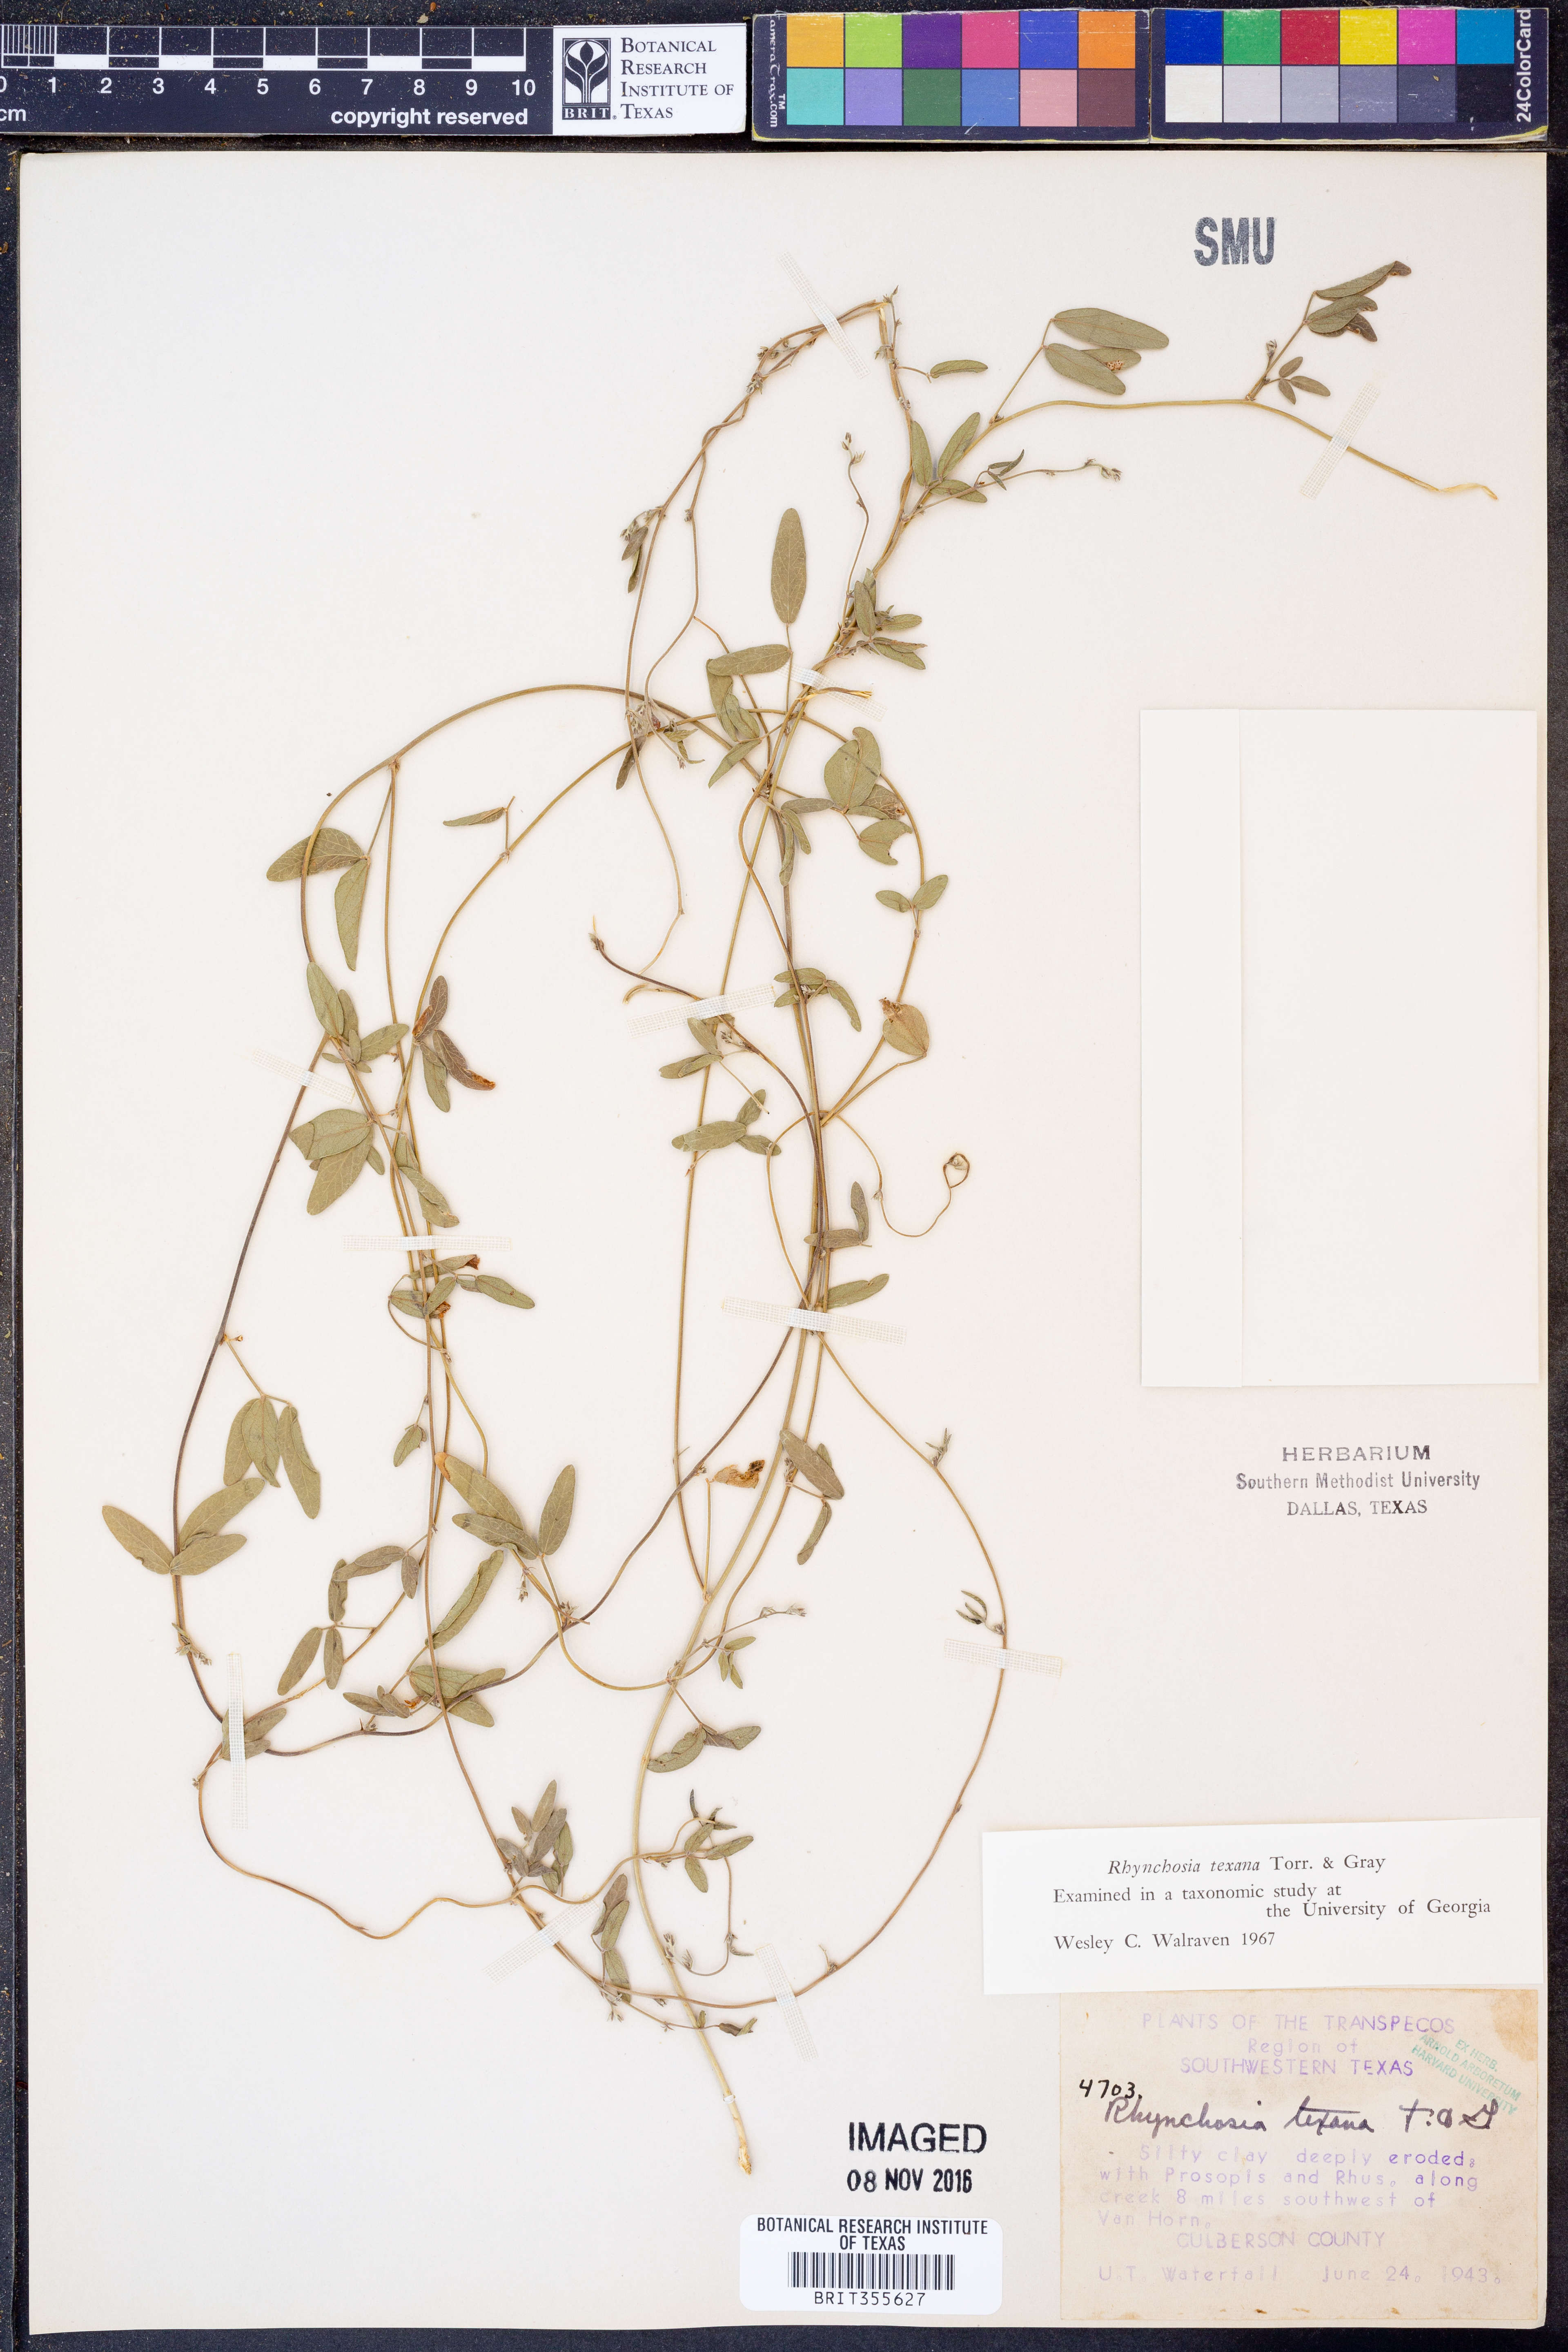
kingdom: Plantae
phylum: Tracheophyta
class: Magnoliopsida
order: Fabales
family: Fabaceae
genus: Rhynchosia
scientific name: Rhynchosia senna
